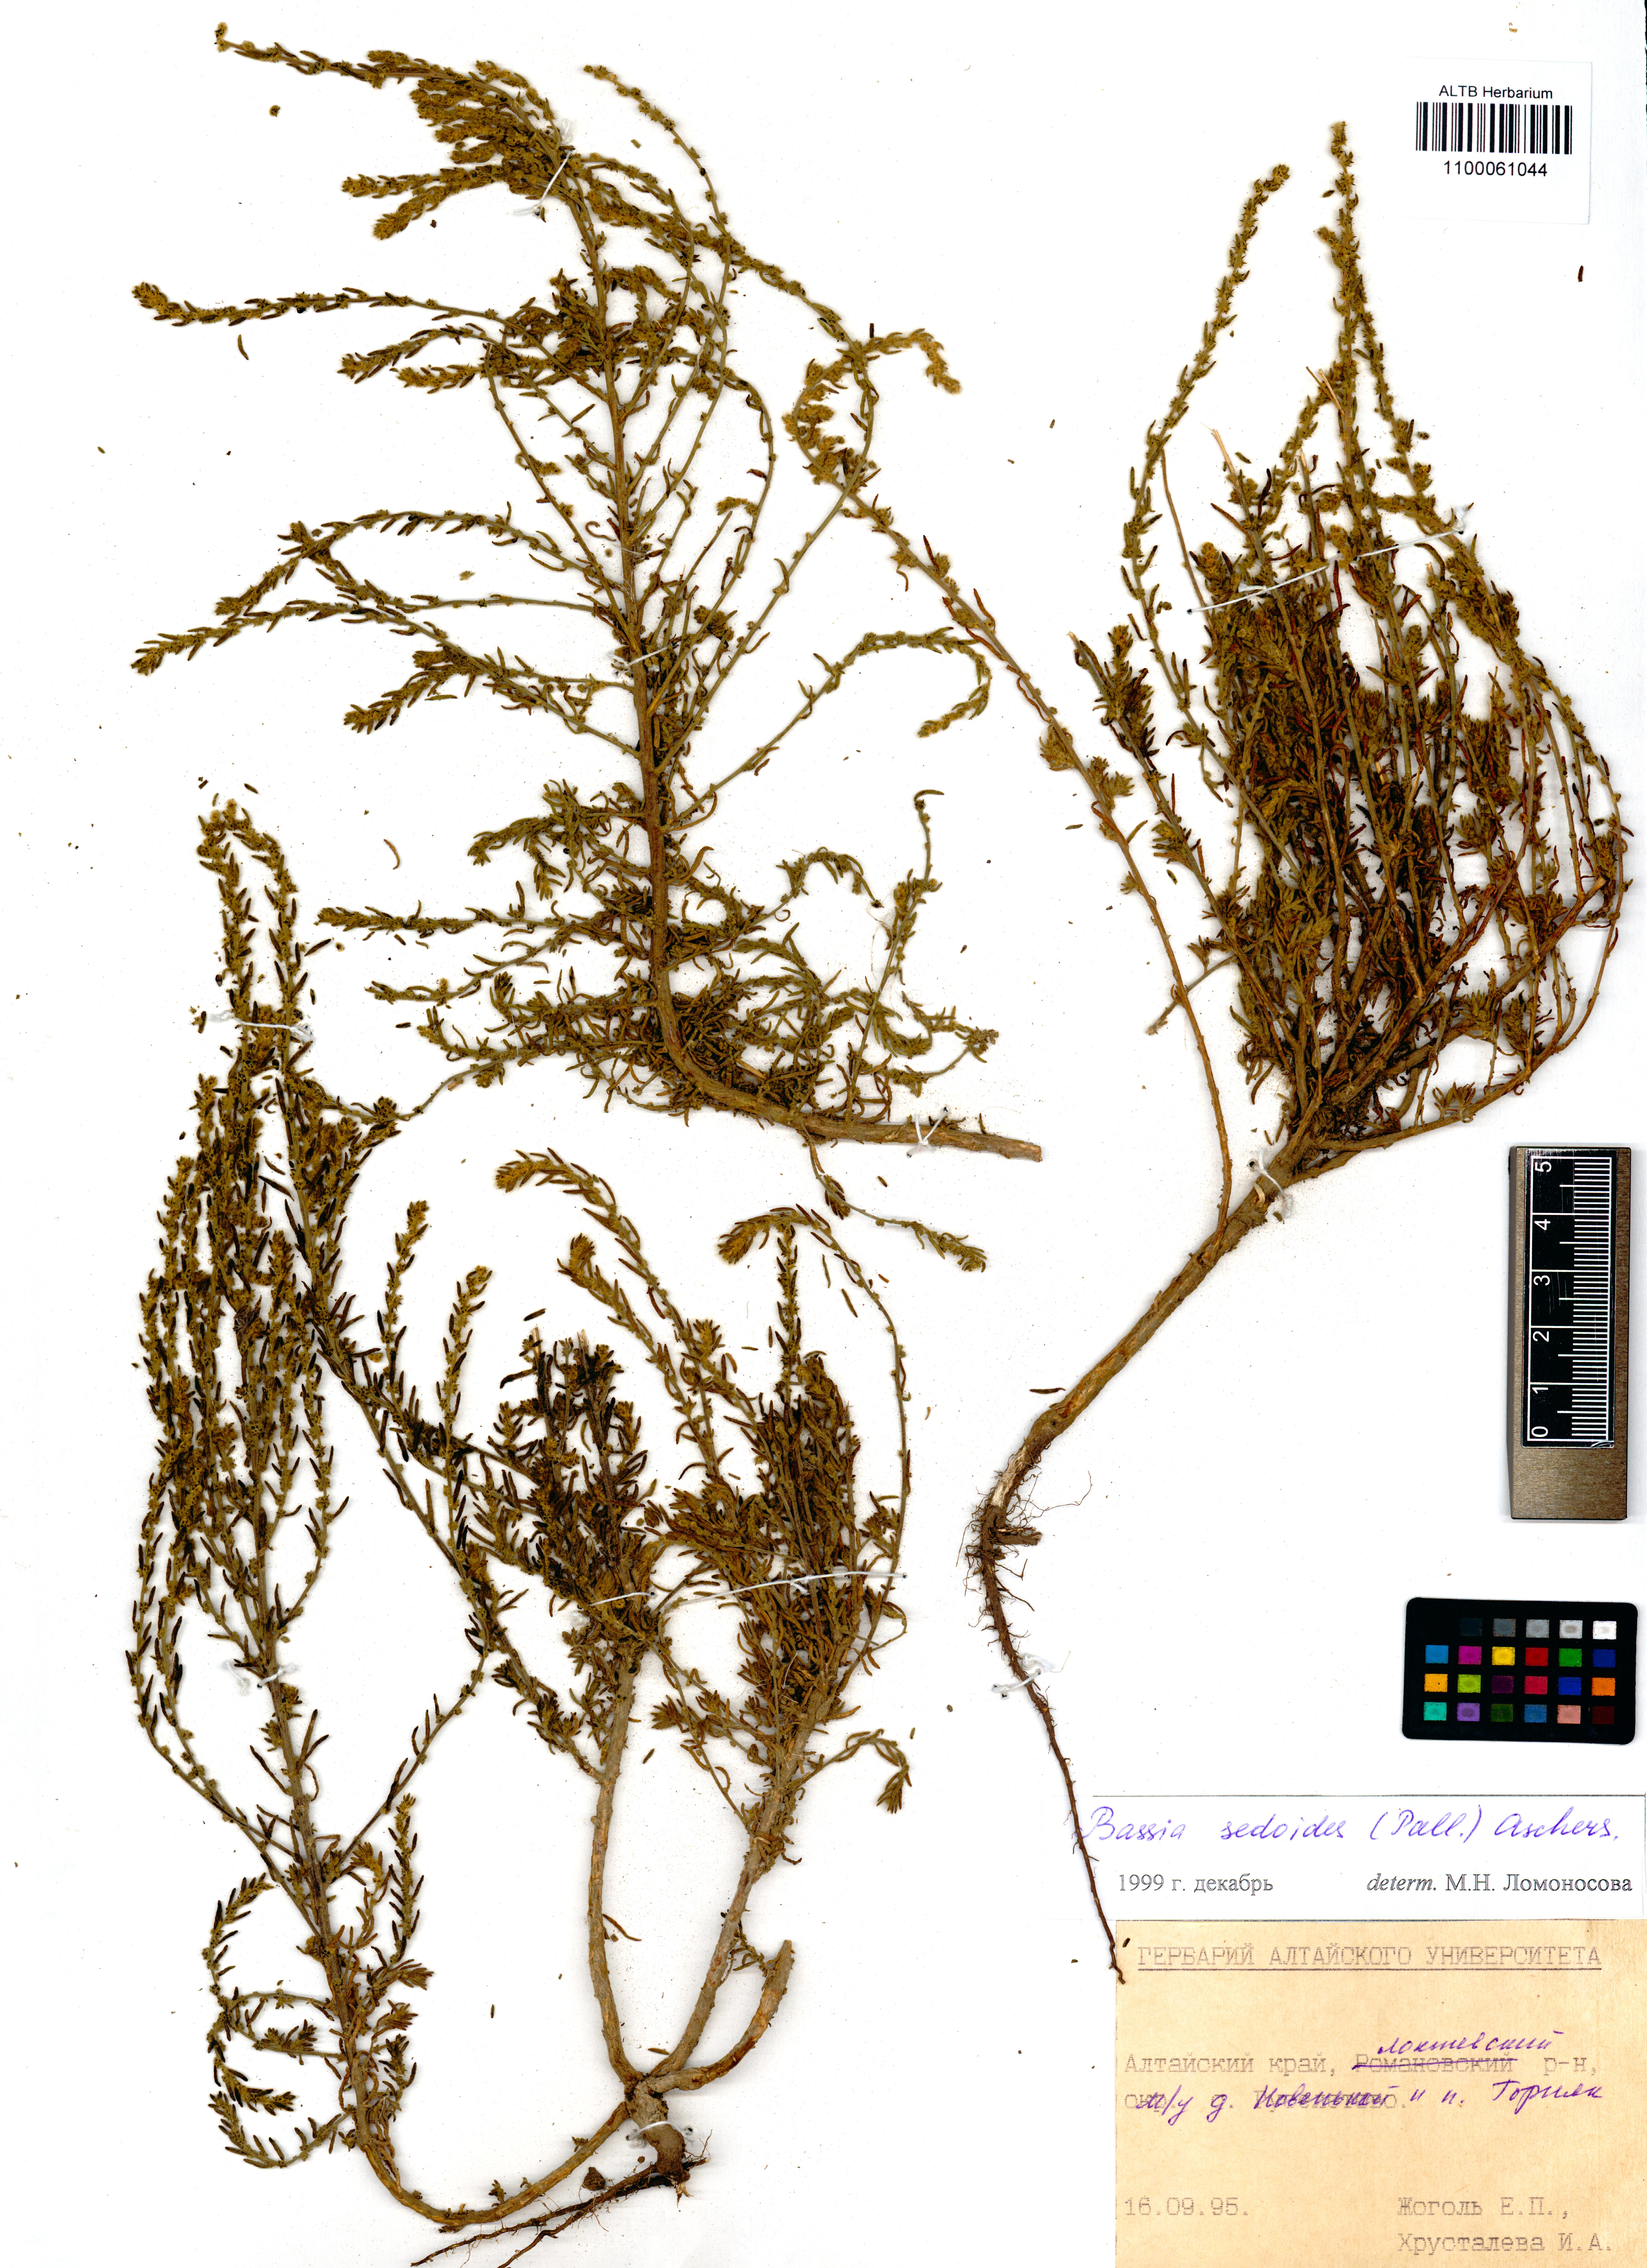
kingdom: Plantae
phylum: Tracheophyta
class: Magnoliopsida
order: Caryophyllales
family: Amaranthaceae
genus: Sedobassia
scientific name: Sedobassia sedoides
